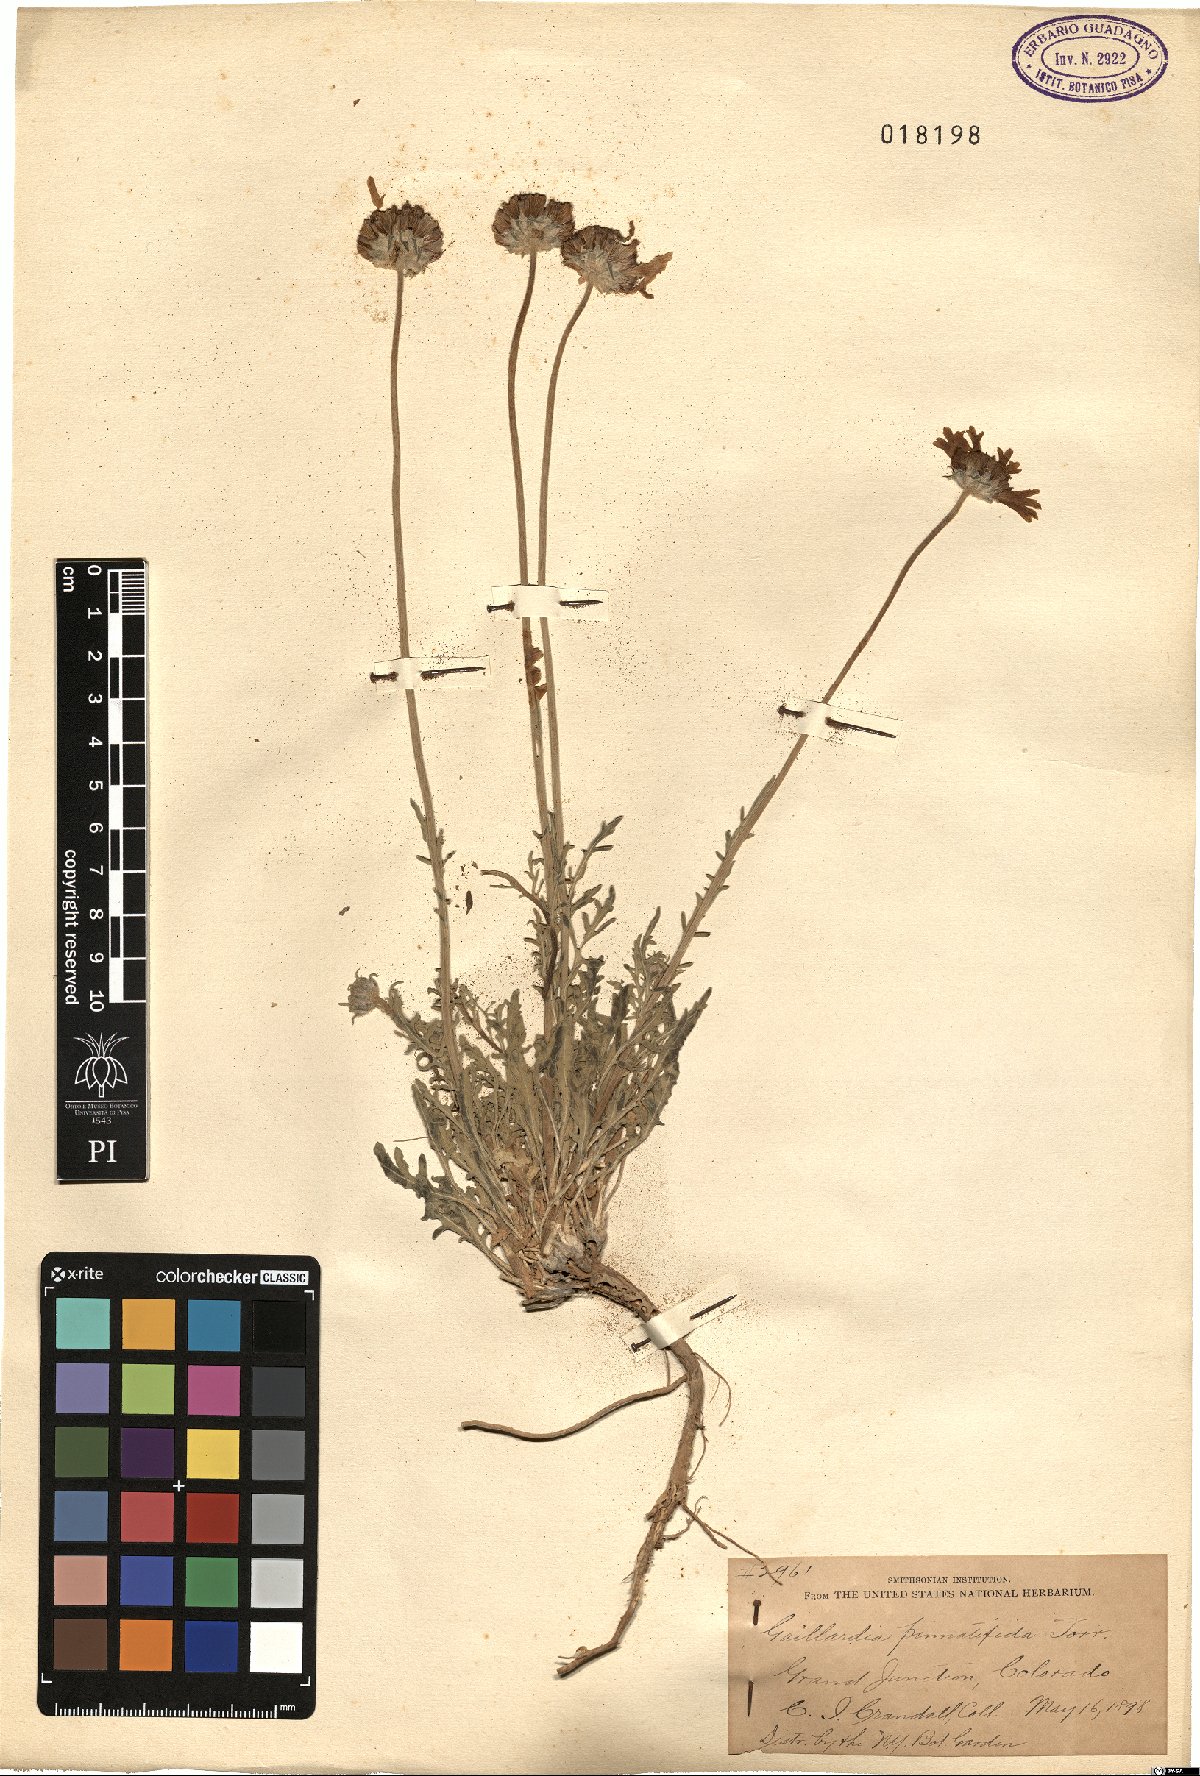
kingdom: Plantae
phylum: Tracheophyta
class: Magnoliopsida
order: Asterales
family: Asteraceae
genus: Gaillardia
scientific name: Gaillardia pinnatifida
